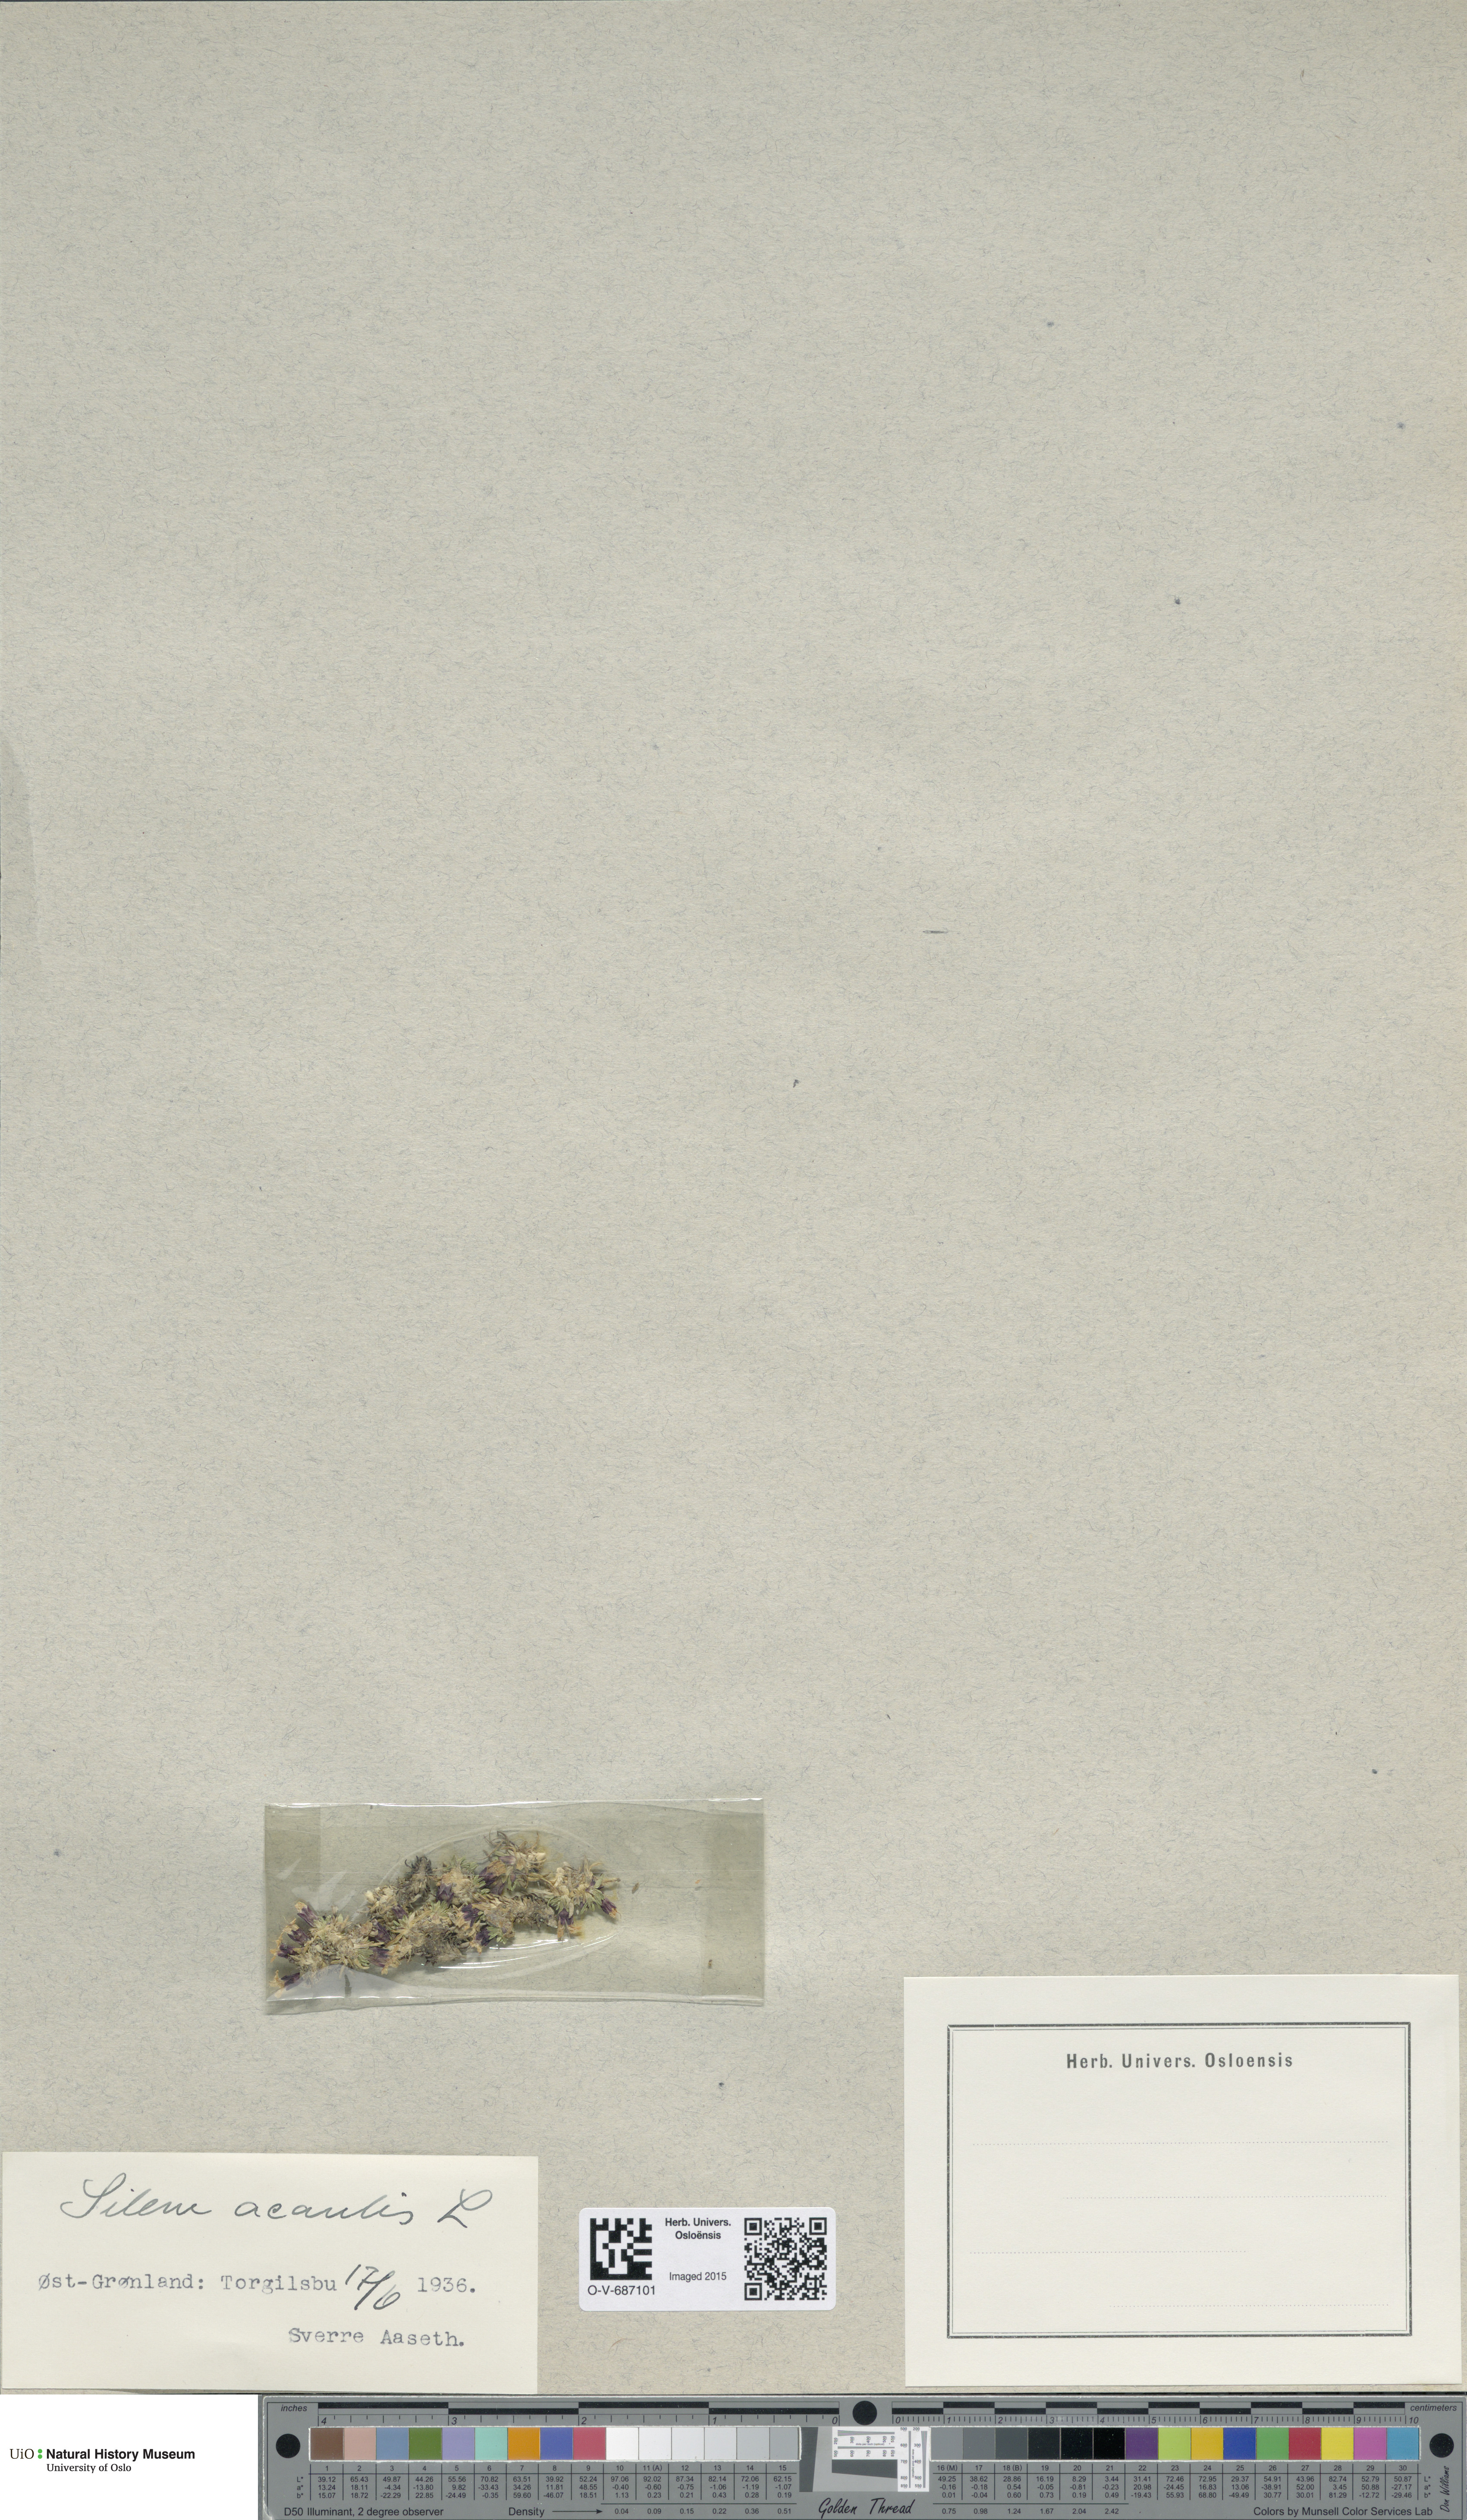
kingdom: Plantae
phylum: Tracheophyta
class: Magnoliopsida
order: Caryophyllales
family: Caryophyllaceae
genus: Silene
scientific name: Silene acaulis
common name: Moss campion
